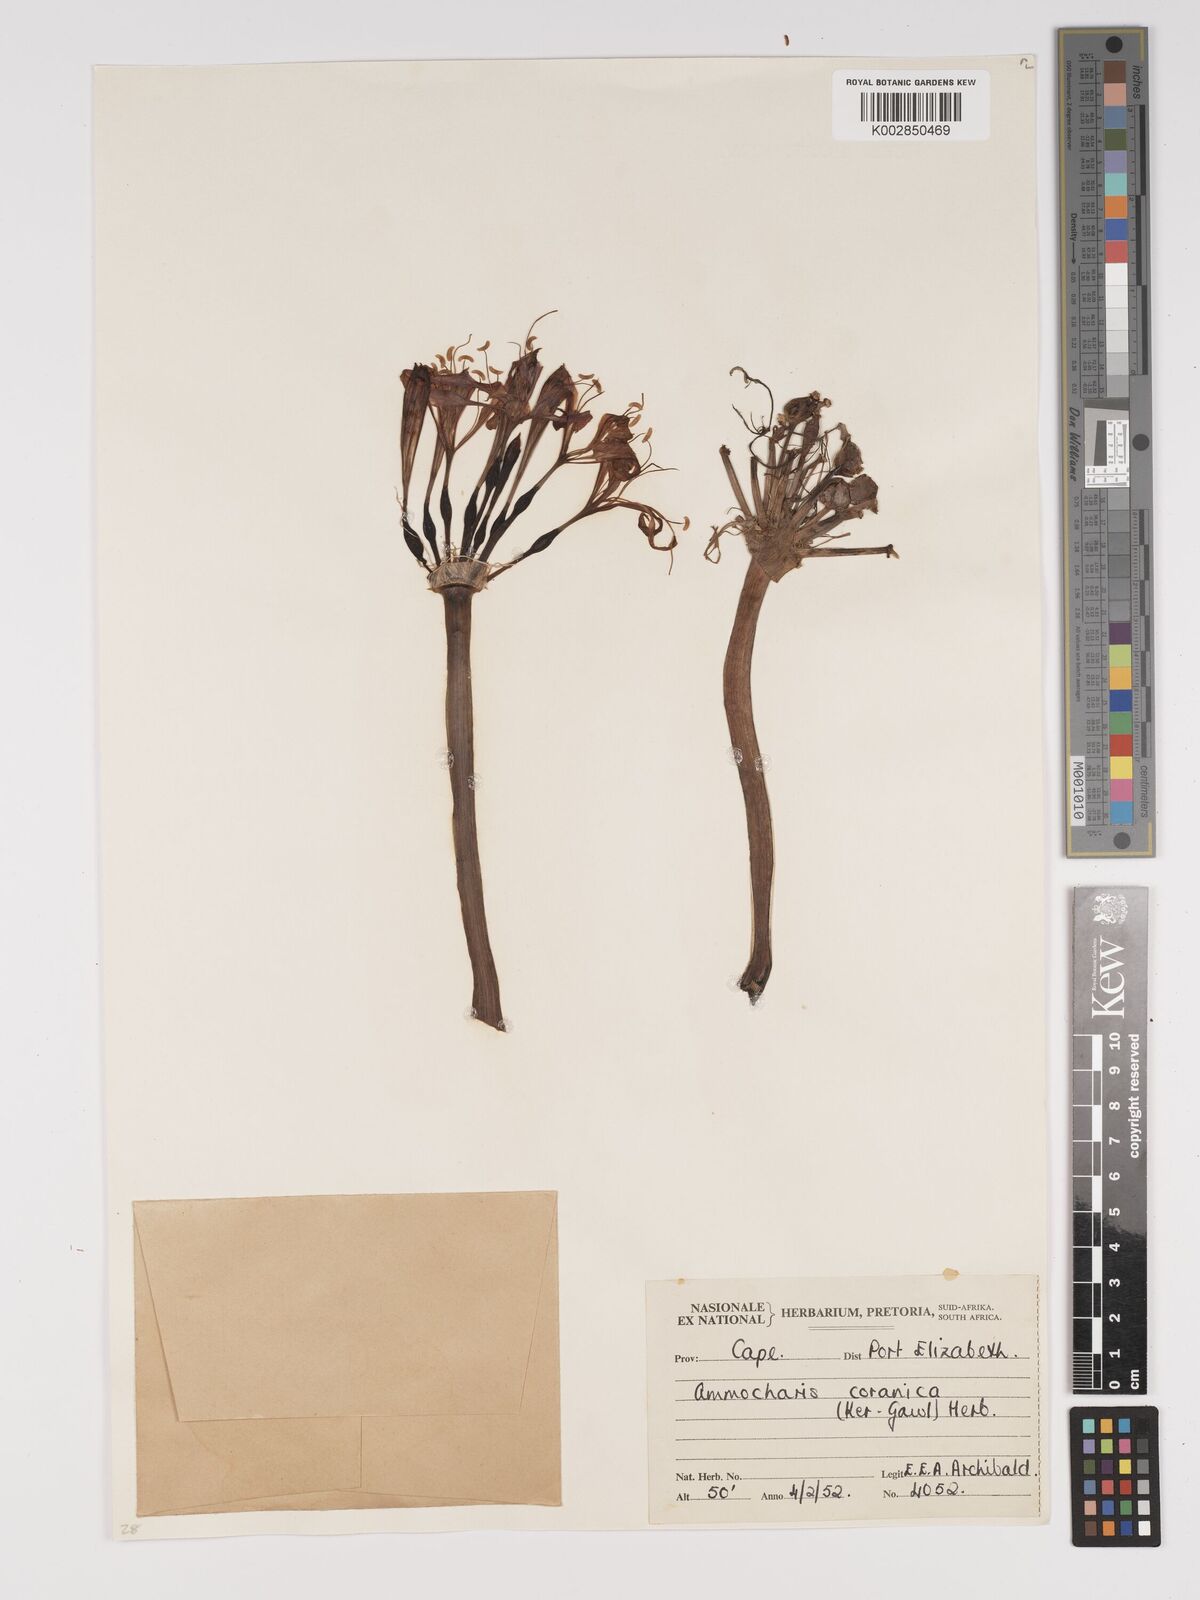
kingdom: Plantae
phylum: Tracheophyta
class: Liliopsida
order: Asparagales
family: Amaryllidaceae
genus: Ammocharis
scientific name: Ammocharis coranica
